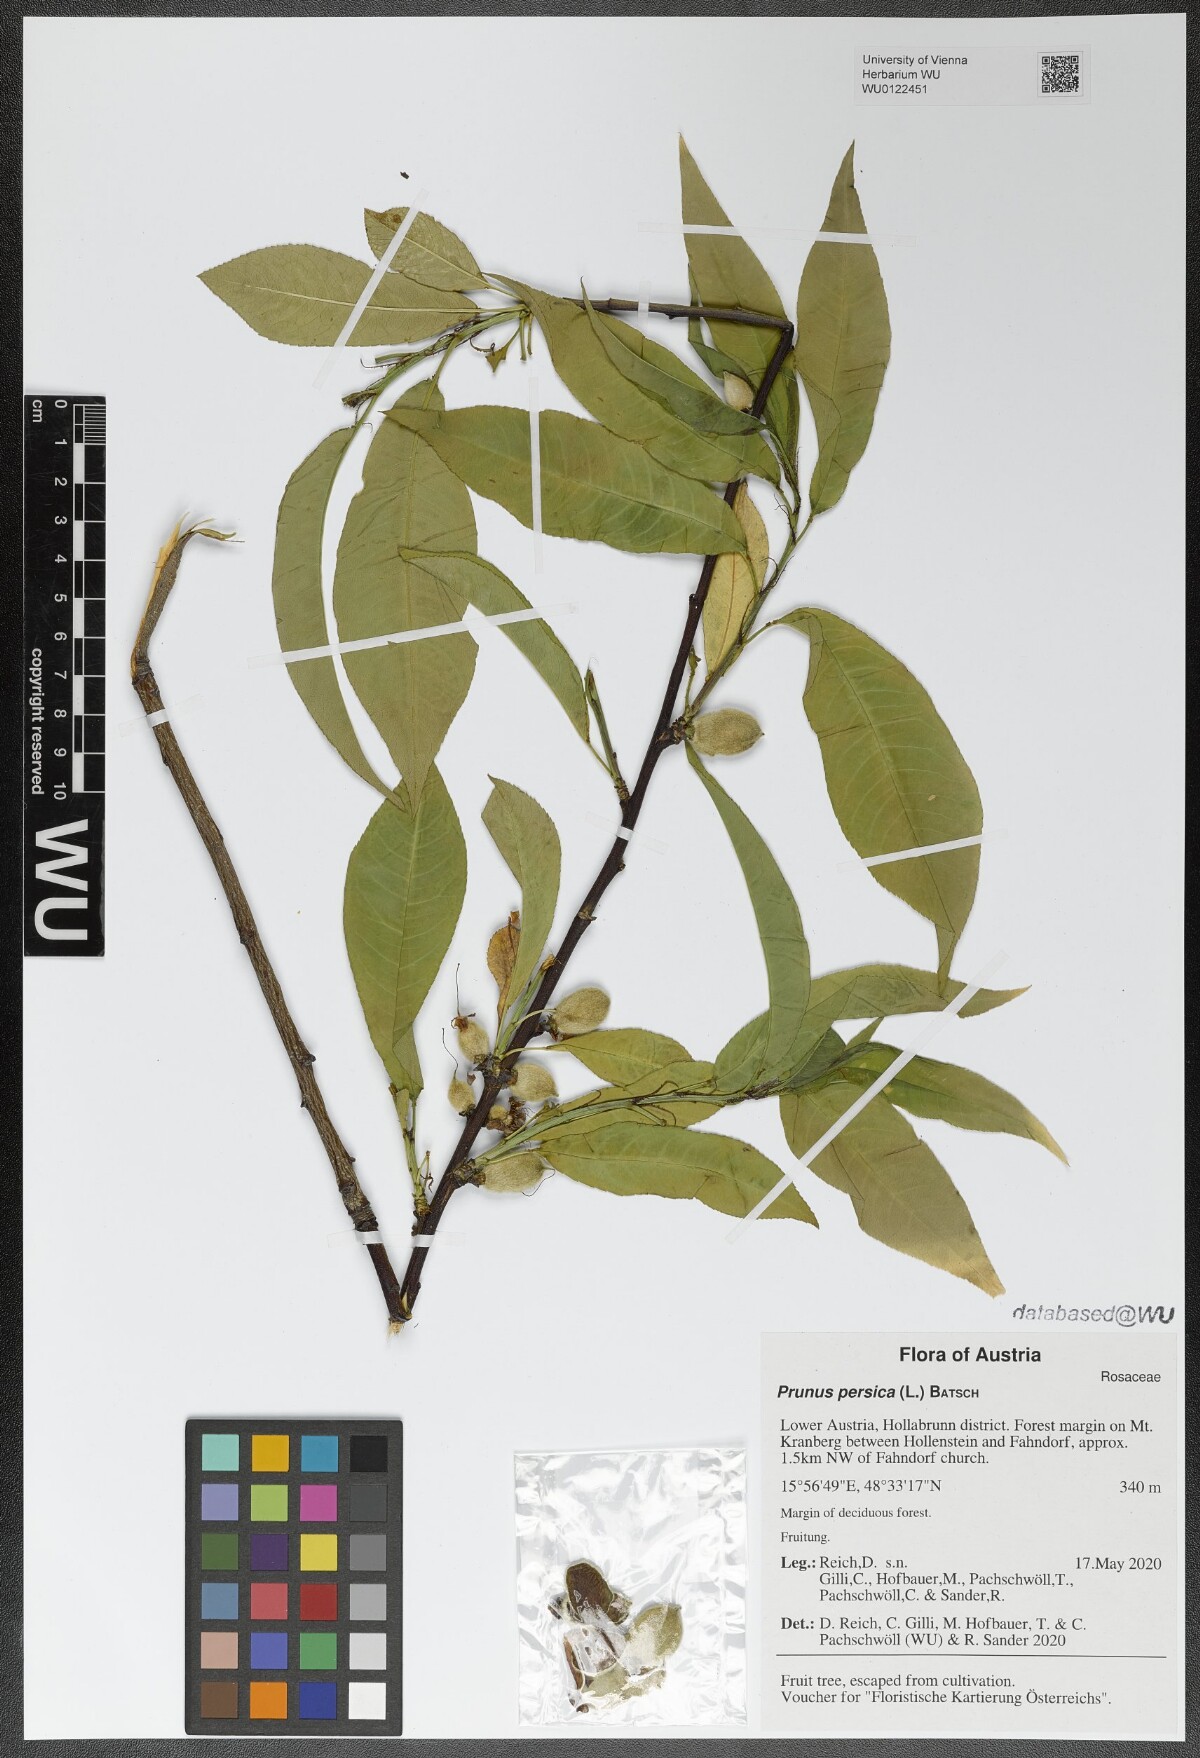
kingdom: Plantae
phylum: Tracheophyta
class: Magnoliopsida
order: Rosales
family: Rosaceae
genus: Prunus
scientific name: Prunus persica
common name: Peach
